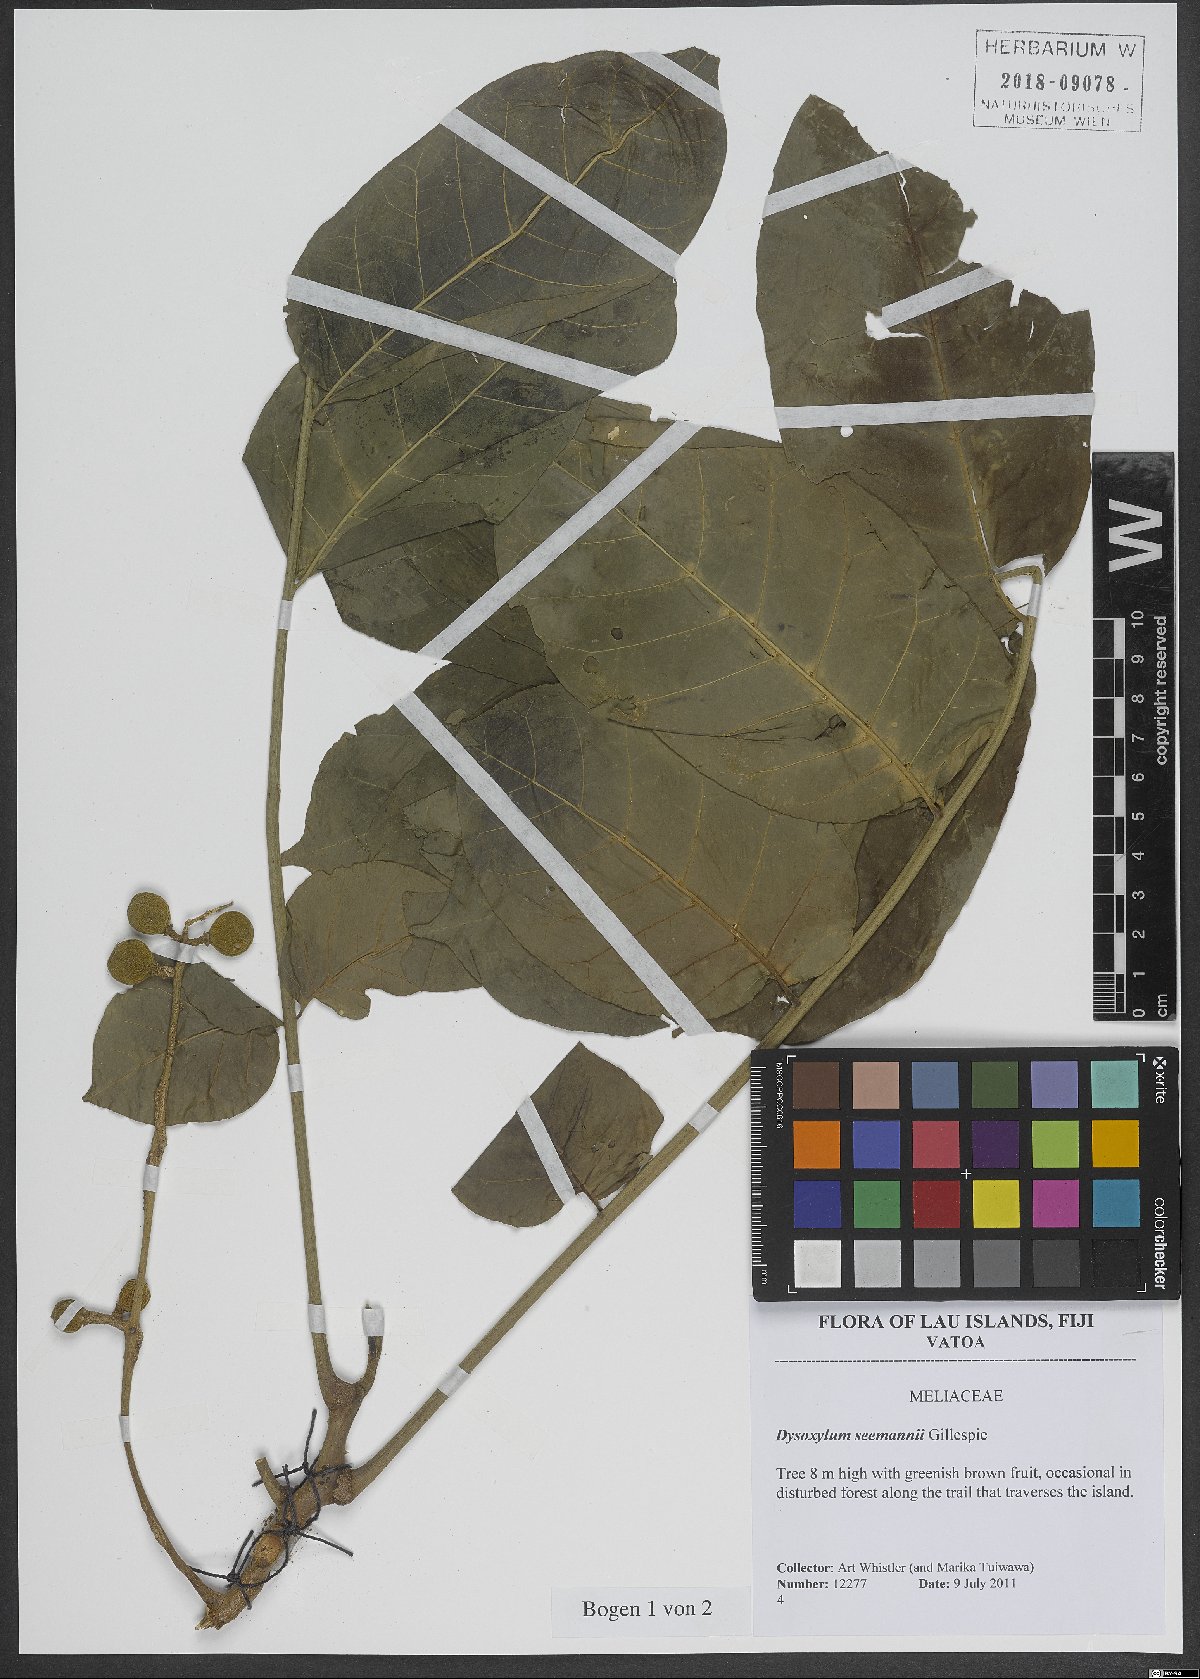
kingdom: Plantae
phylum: Tracheophyta
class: Magnoliopsida
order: Sapindales
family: Meliaceae
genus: Didymocheton
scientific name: Didymocheton multijugus
